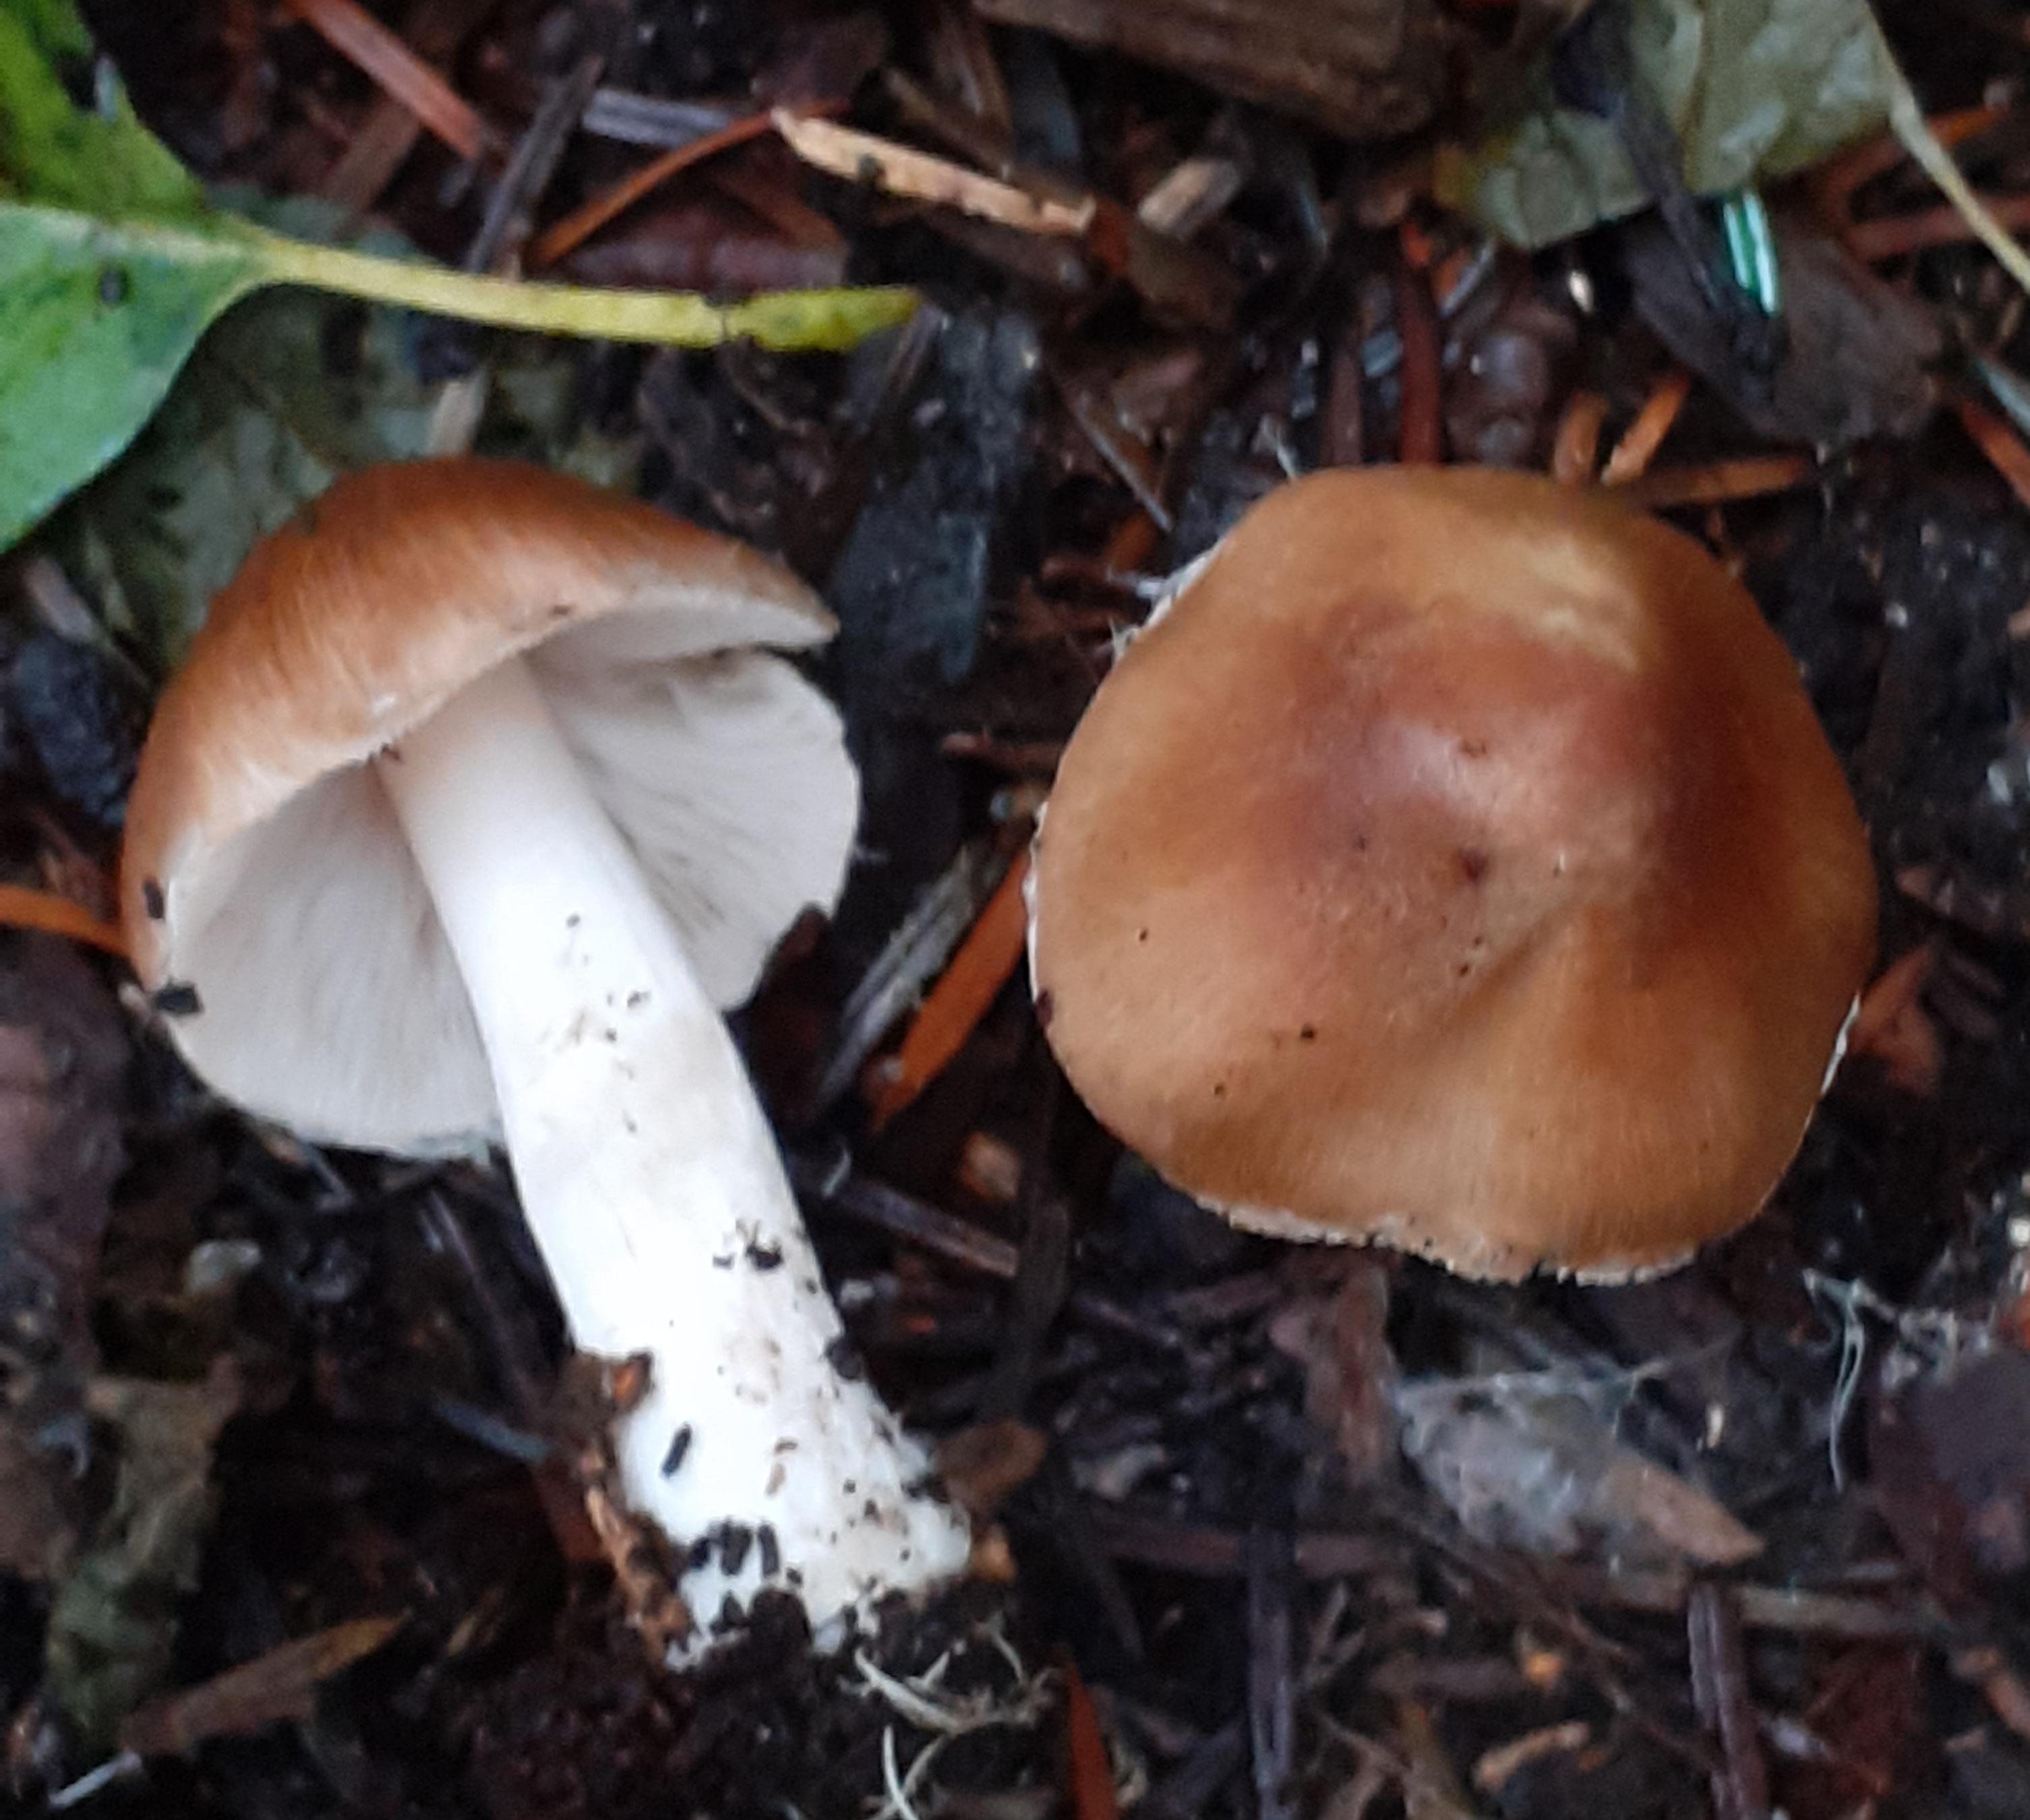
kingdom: Fungi
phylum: Basidiomycota
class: Agaricomycetes
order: Agaricales
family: Inocybaceae
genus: Inocybe
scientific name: Inocybe
